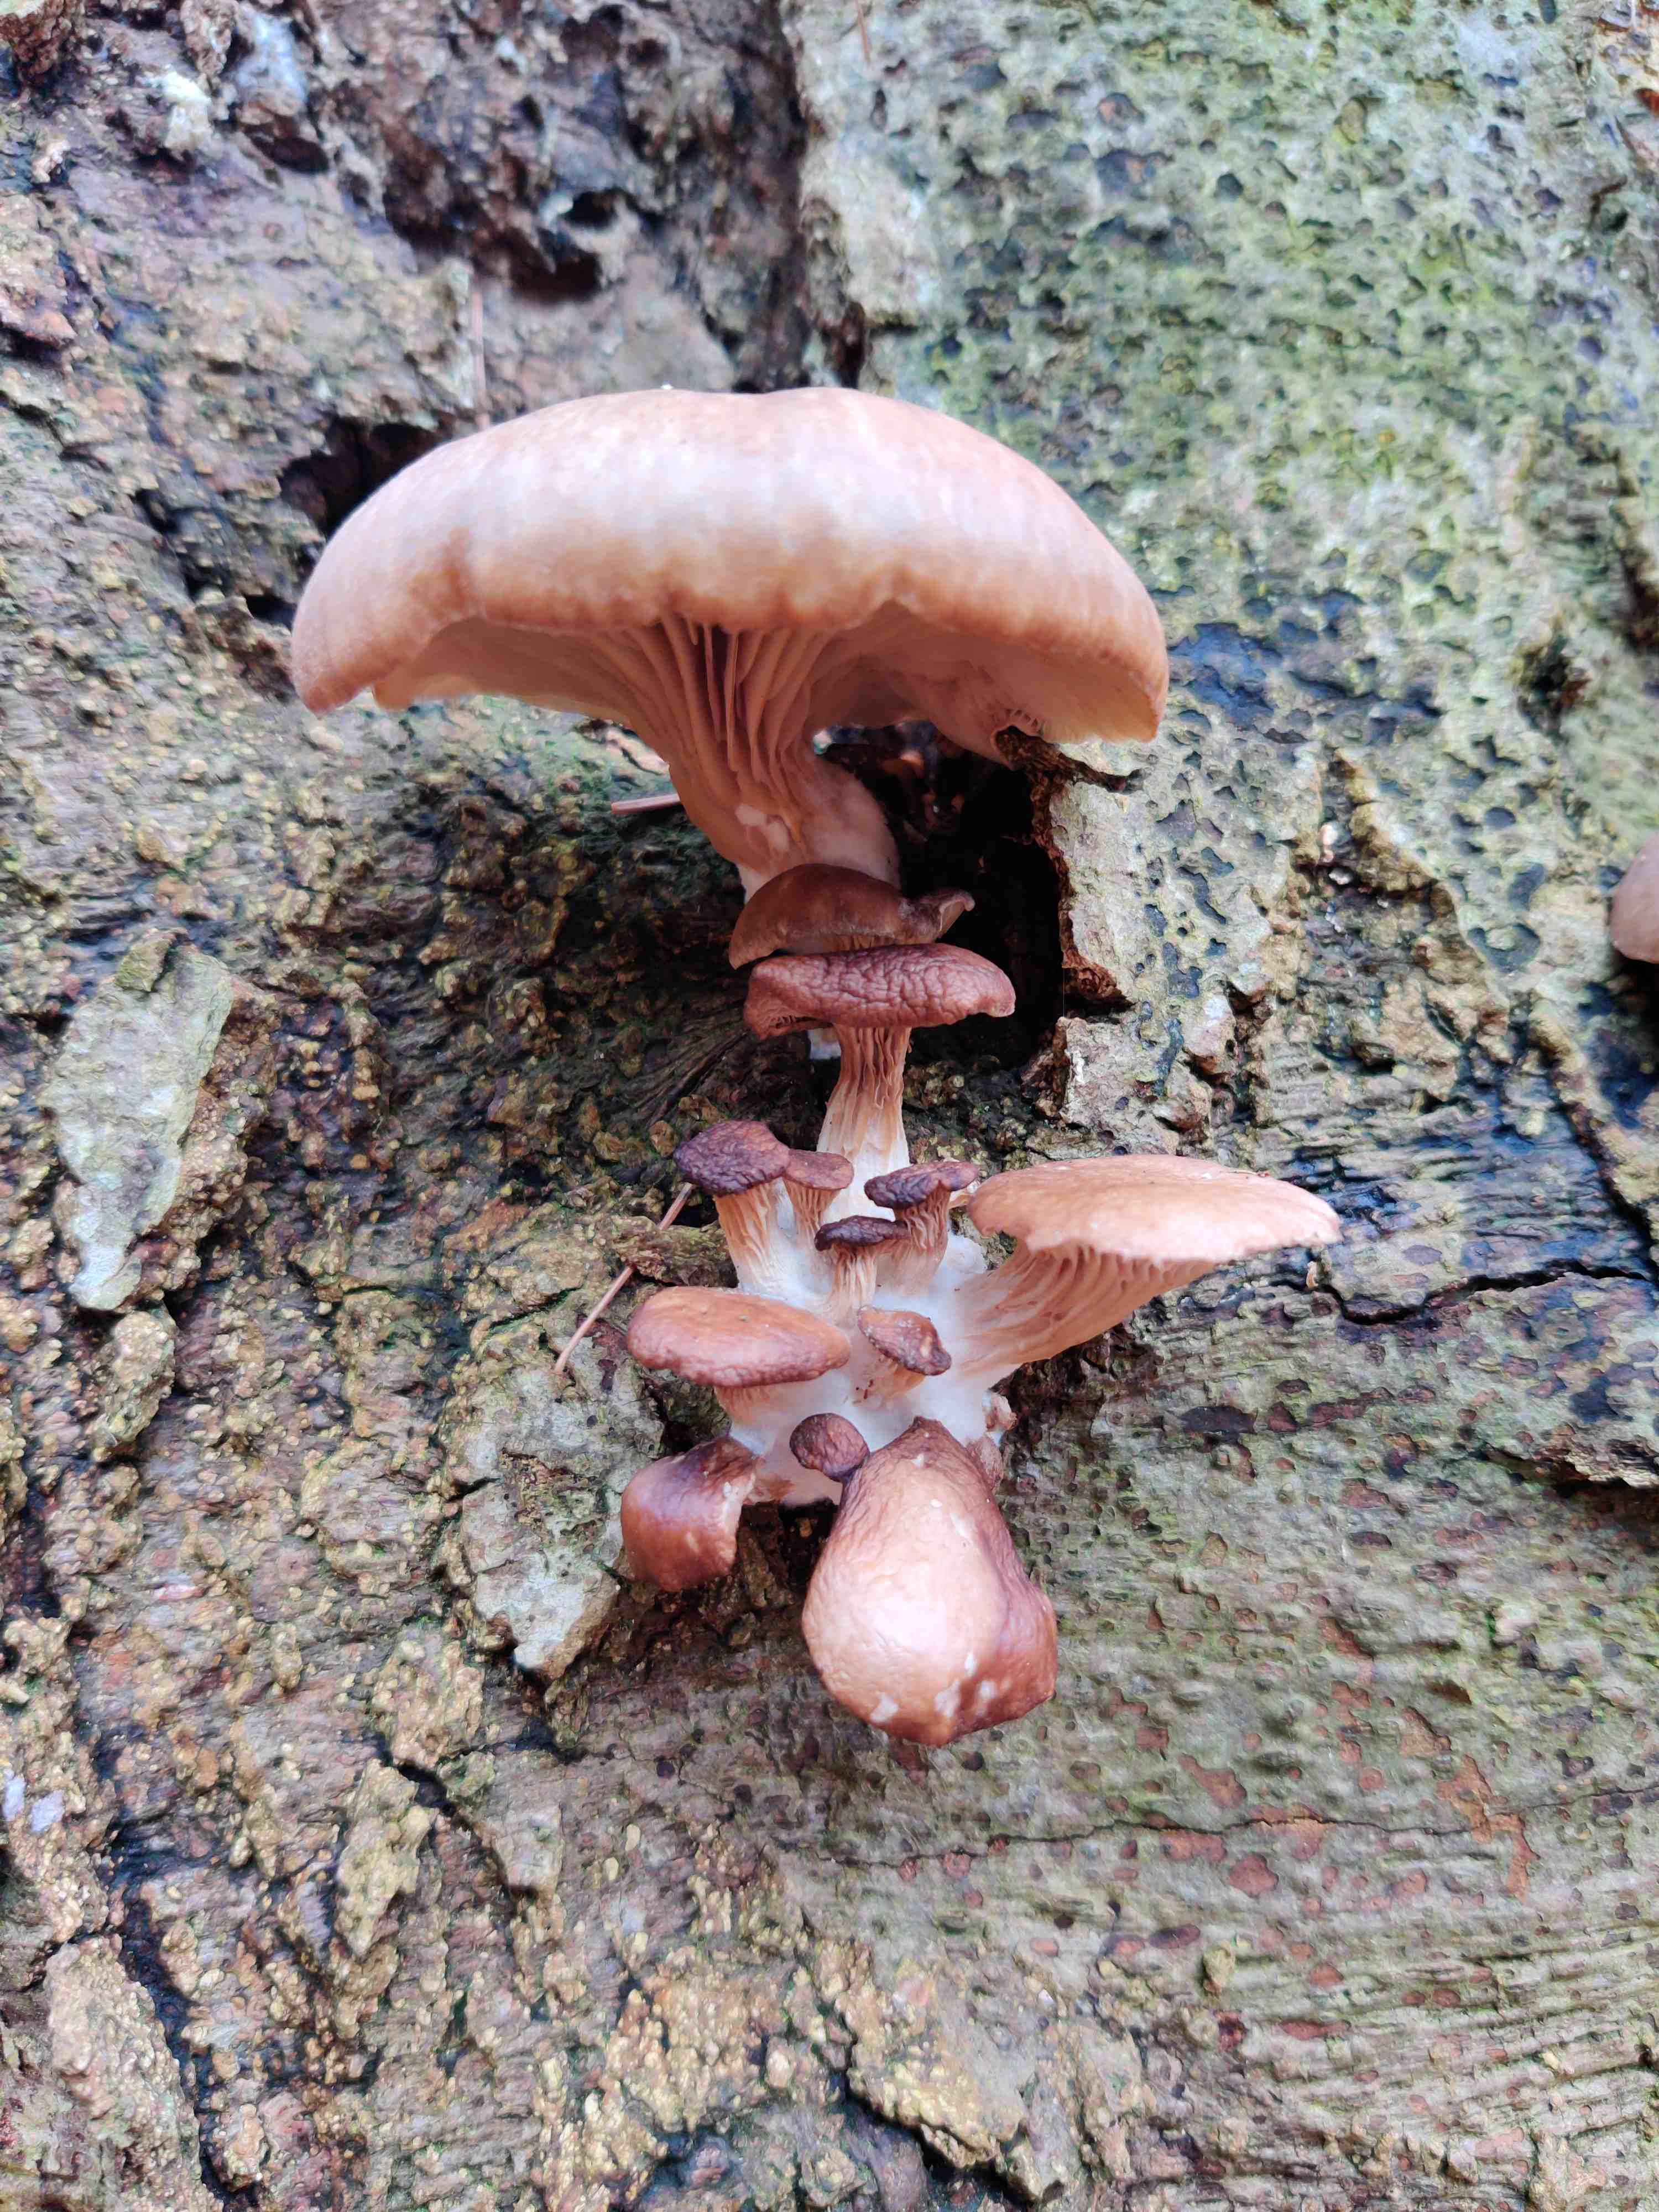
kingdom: Fungi
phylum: Basidiomycota
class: Agaricomycetes
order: Agaricales
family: Pleurotaceae
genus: Pleurotus
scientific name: Pleurotus ostreatus
